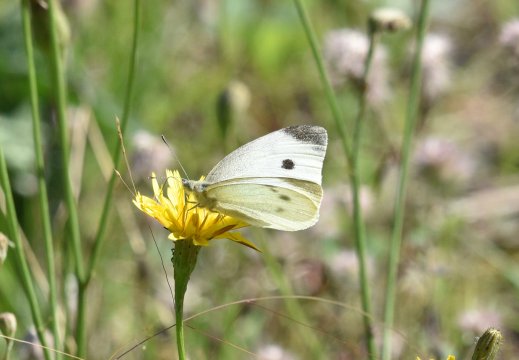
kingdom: Animalia
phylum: Arthropoda
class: Insecta
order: Lepidoptera
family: Pieridae
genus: Pieris
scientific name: Pieris rapae
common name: Cabbage White
